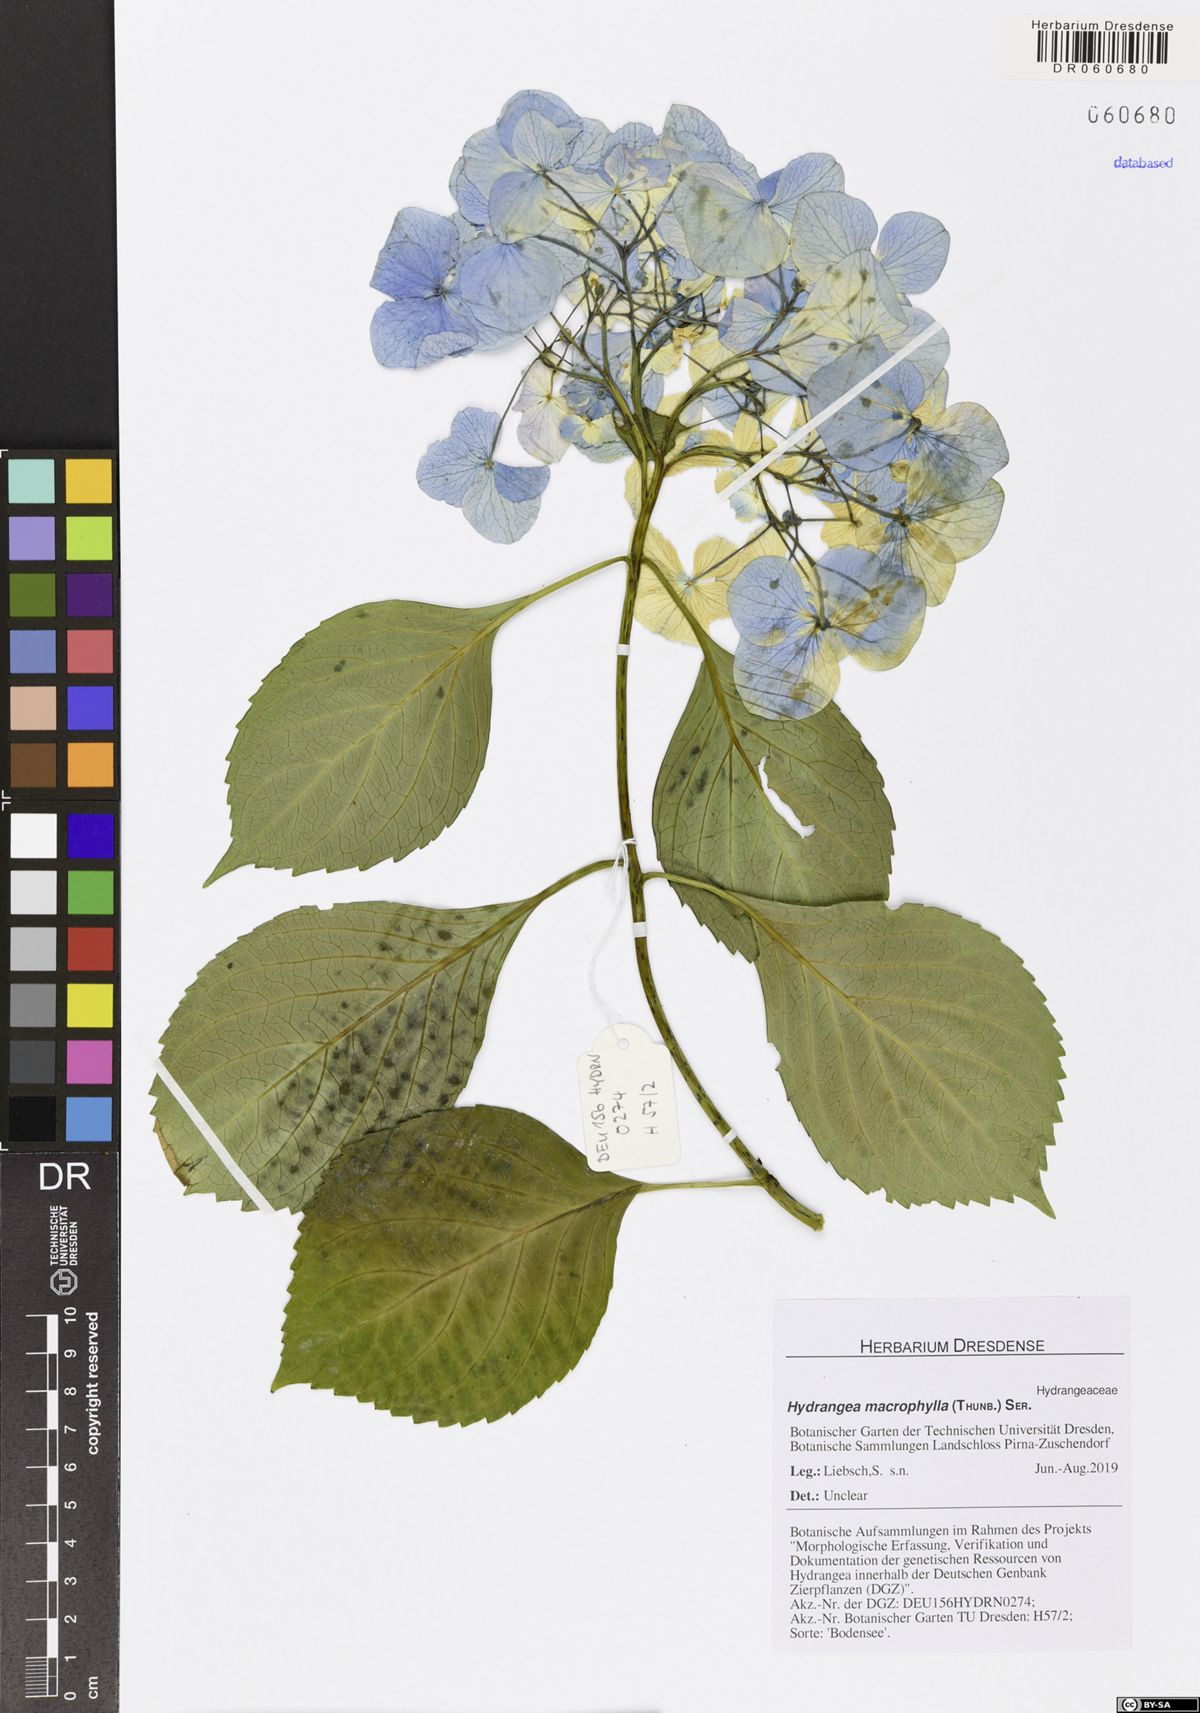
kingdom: Plantae
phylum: Tracheophyta
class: Magnoliopsida
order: Cornales
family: Hydrangeaceae
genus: Hydrangea
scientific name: Hydrangea macrophylla
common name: Hydrangea
